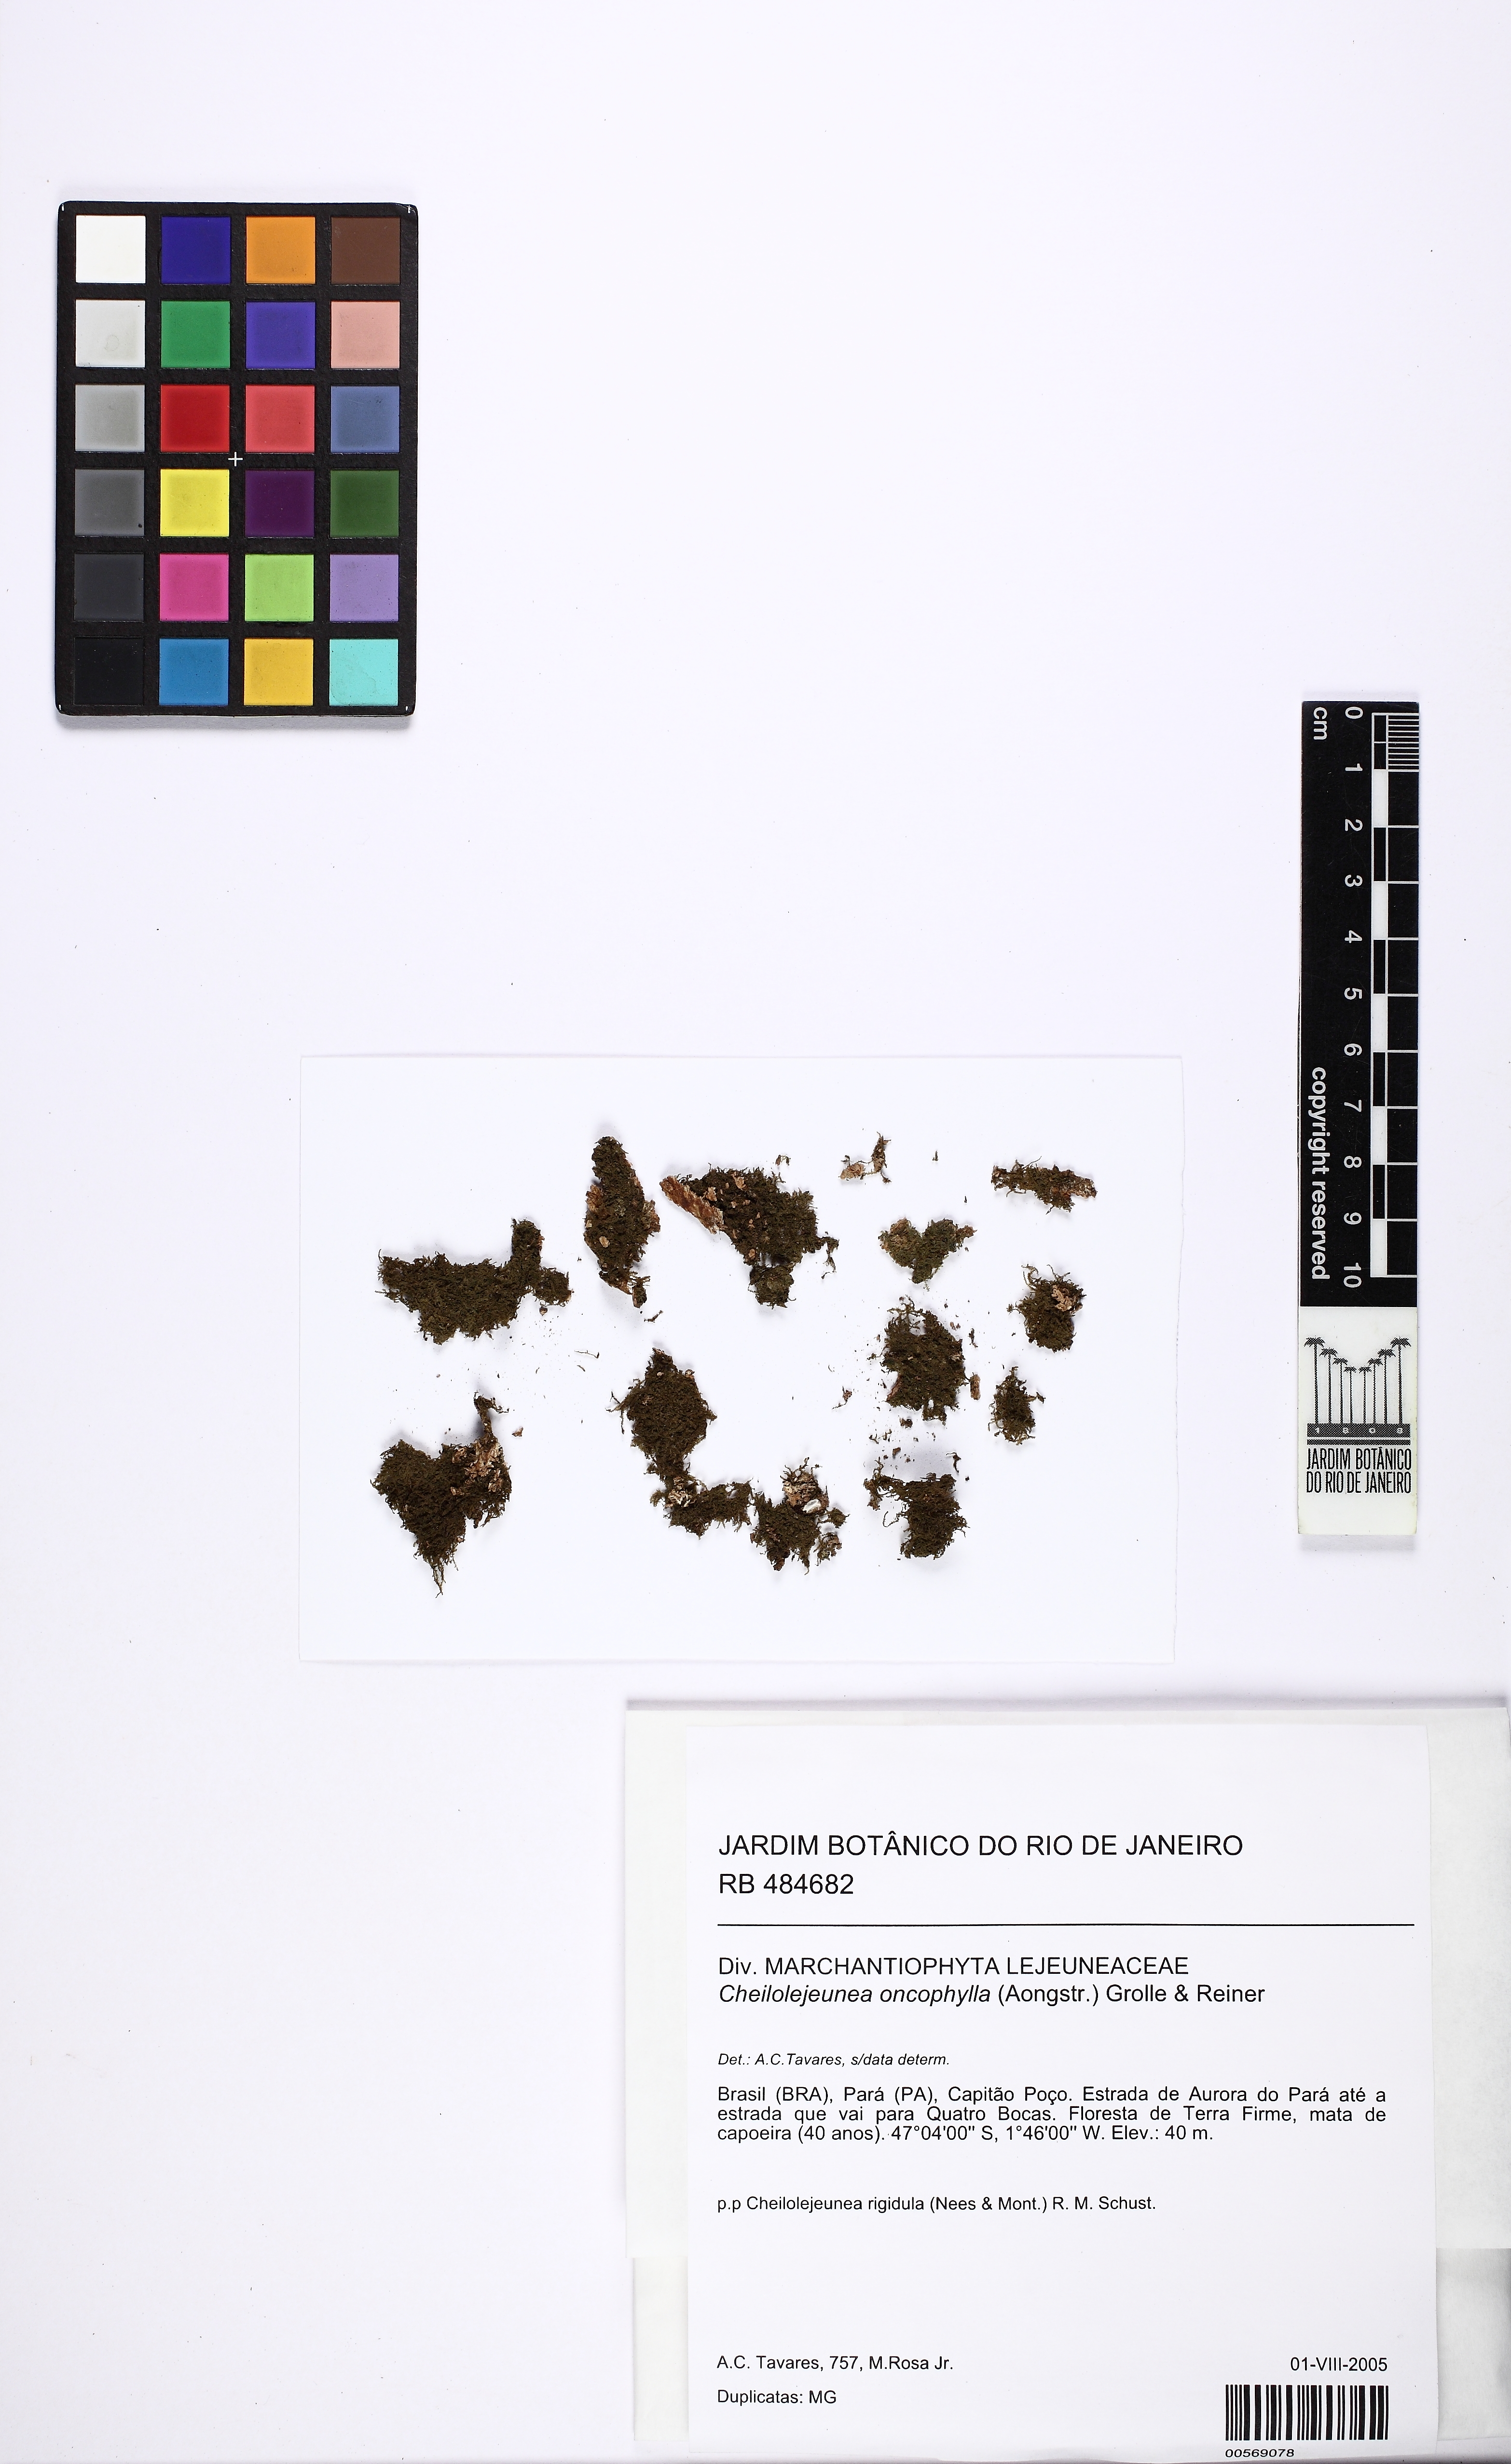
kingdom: Plantae
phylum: Marchantiophyta
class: Jungermanniopsida
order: Porellales
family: Lejeuneaceae
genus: Cheilolejeunea
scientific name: Cheilolejeunea lobulata
